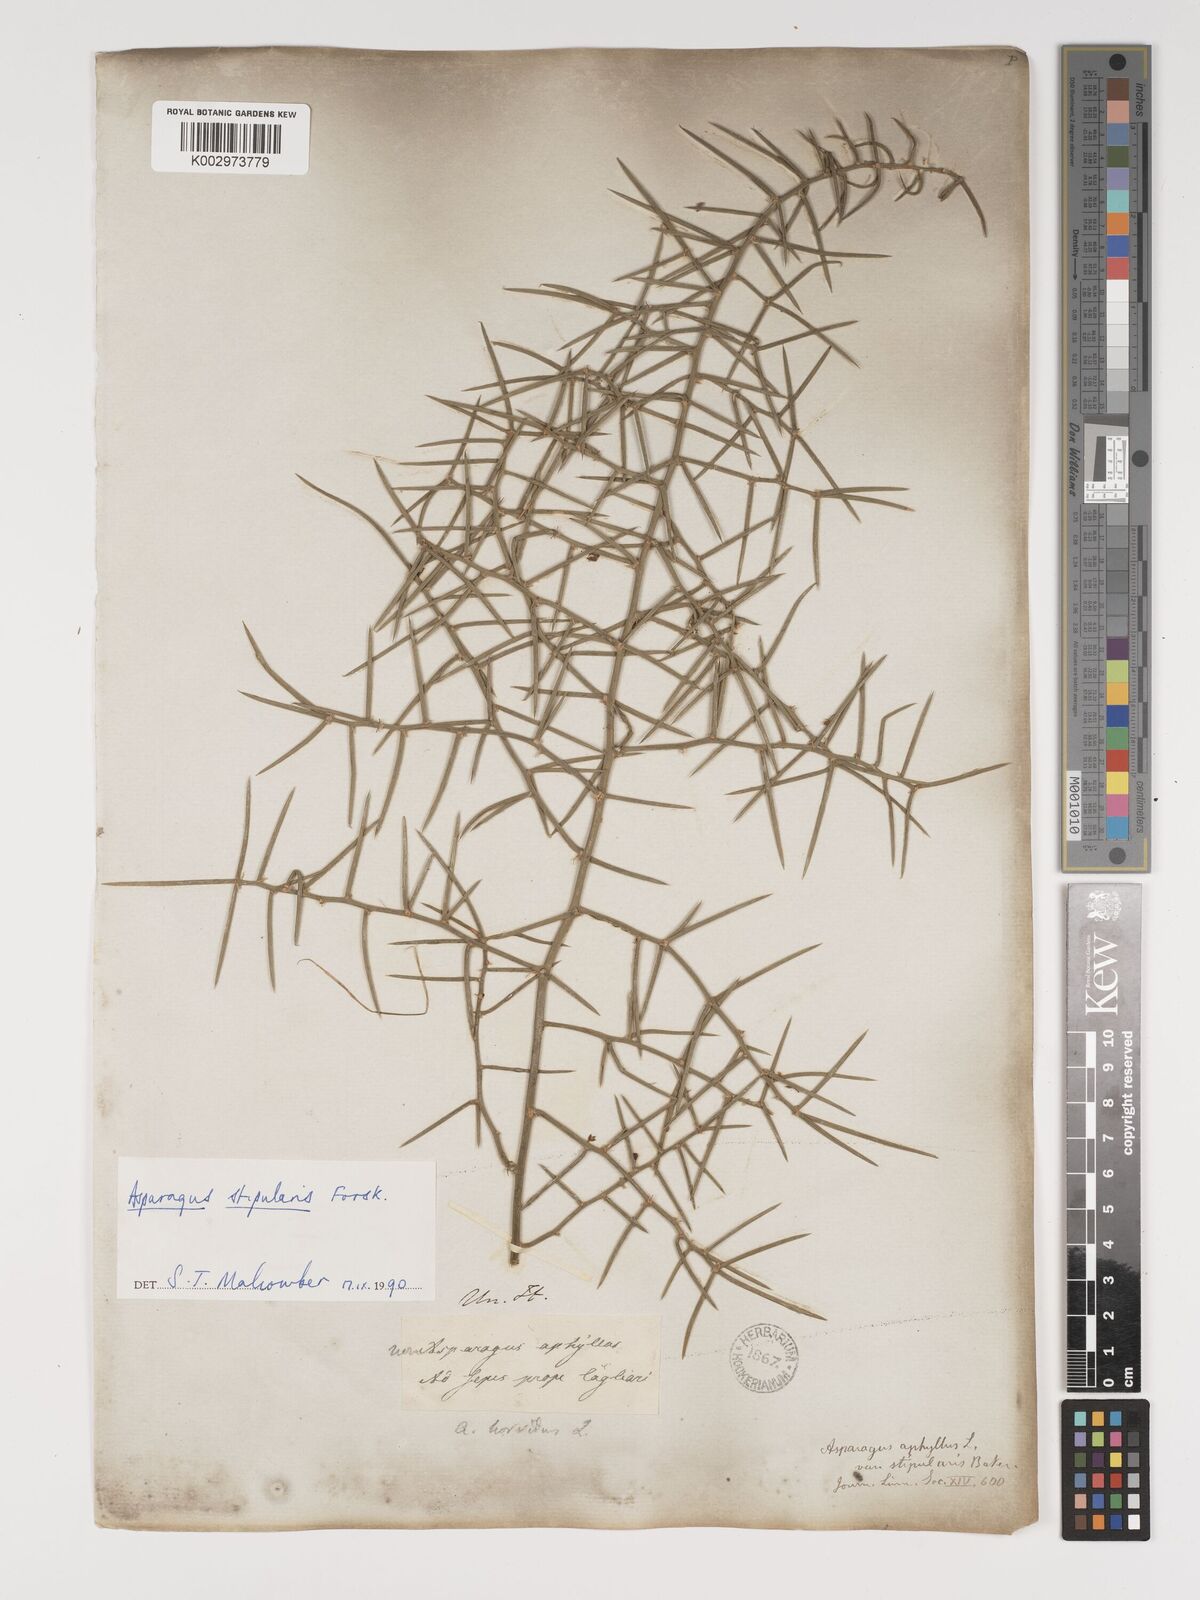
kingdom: Plantae
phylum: Tracheophyta
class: Liliopsida
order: Asparagales
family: Asparagaceae
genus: Asparagus
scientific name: Asparagus horridus
